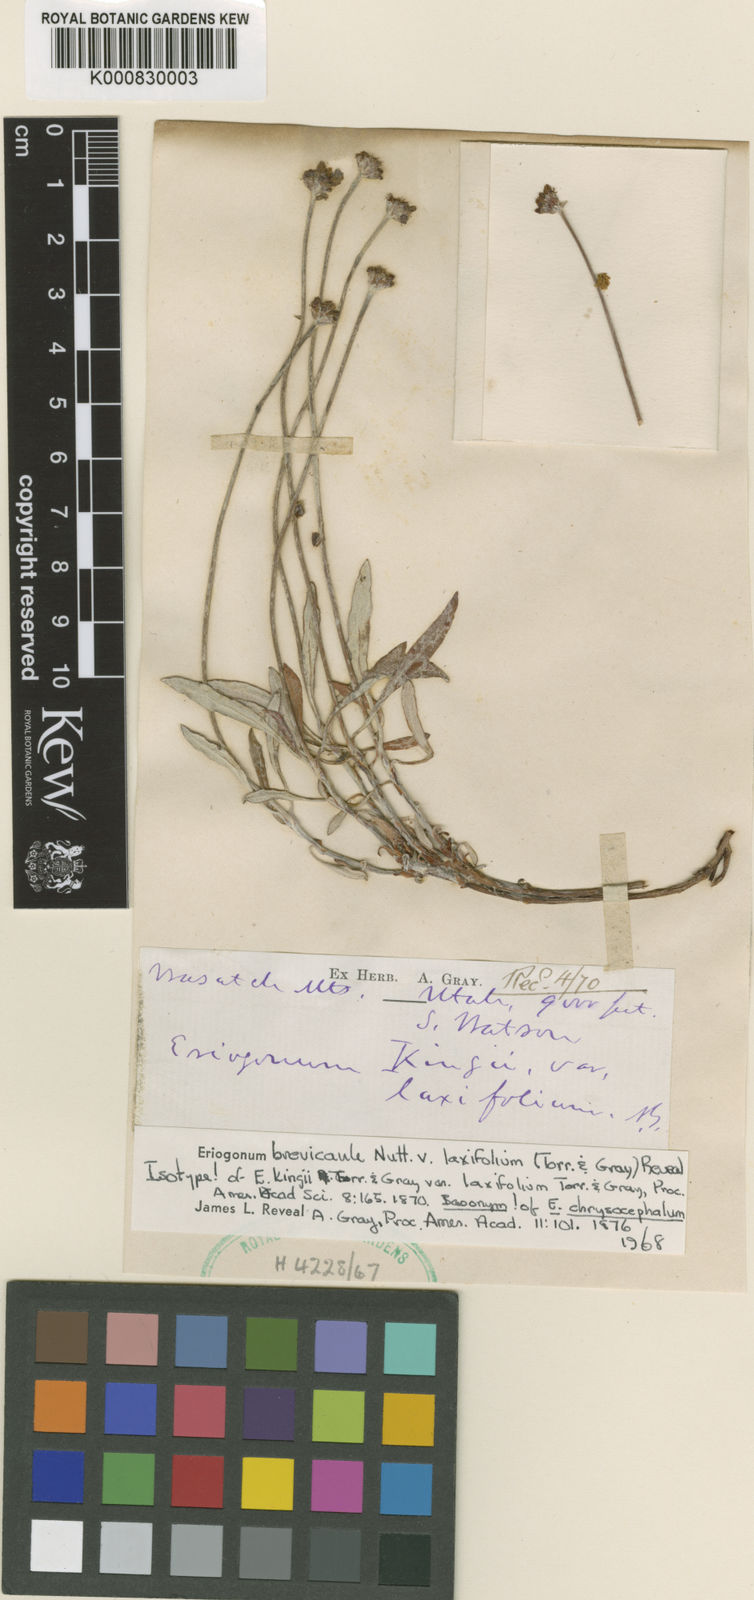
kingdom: Plantae
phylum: Tracheophyta
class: Magnoliopsida
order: Caryophyllales
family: Polygonaceae
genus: Eriogonum
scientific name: Eriogonum brevicaule
